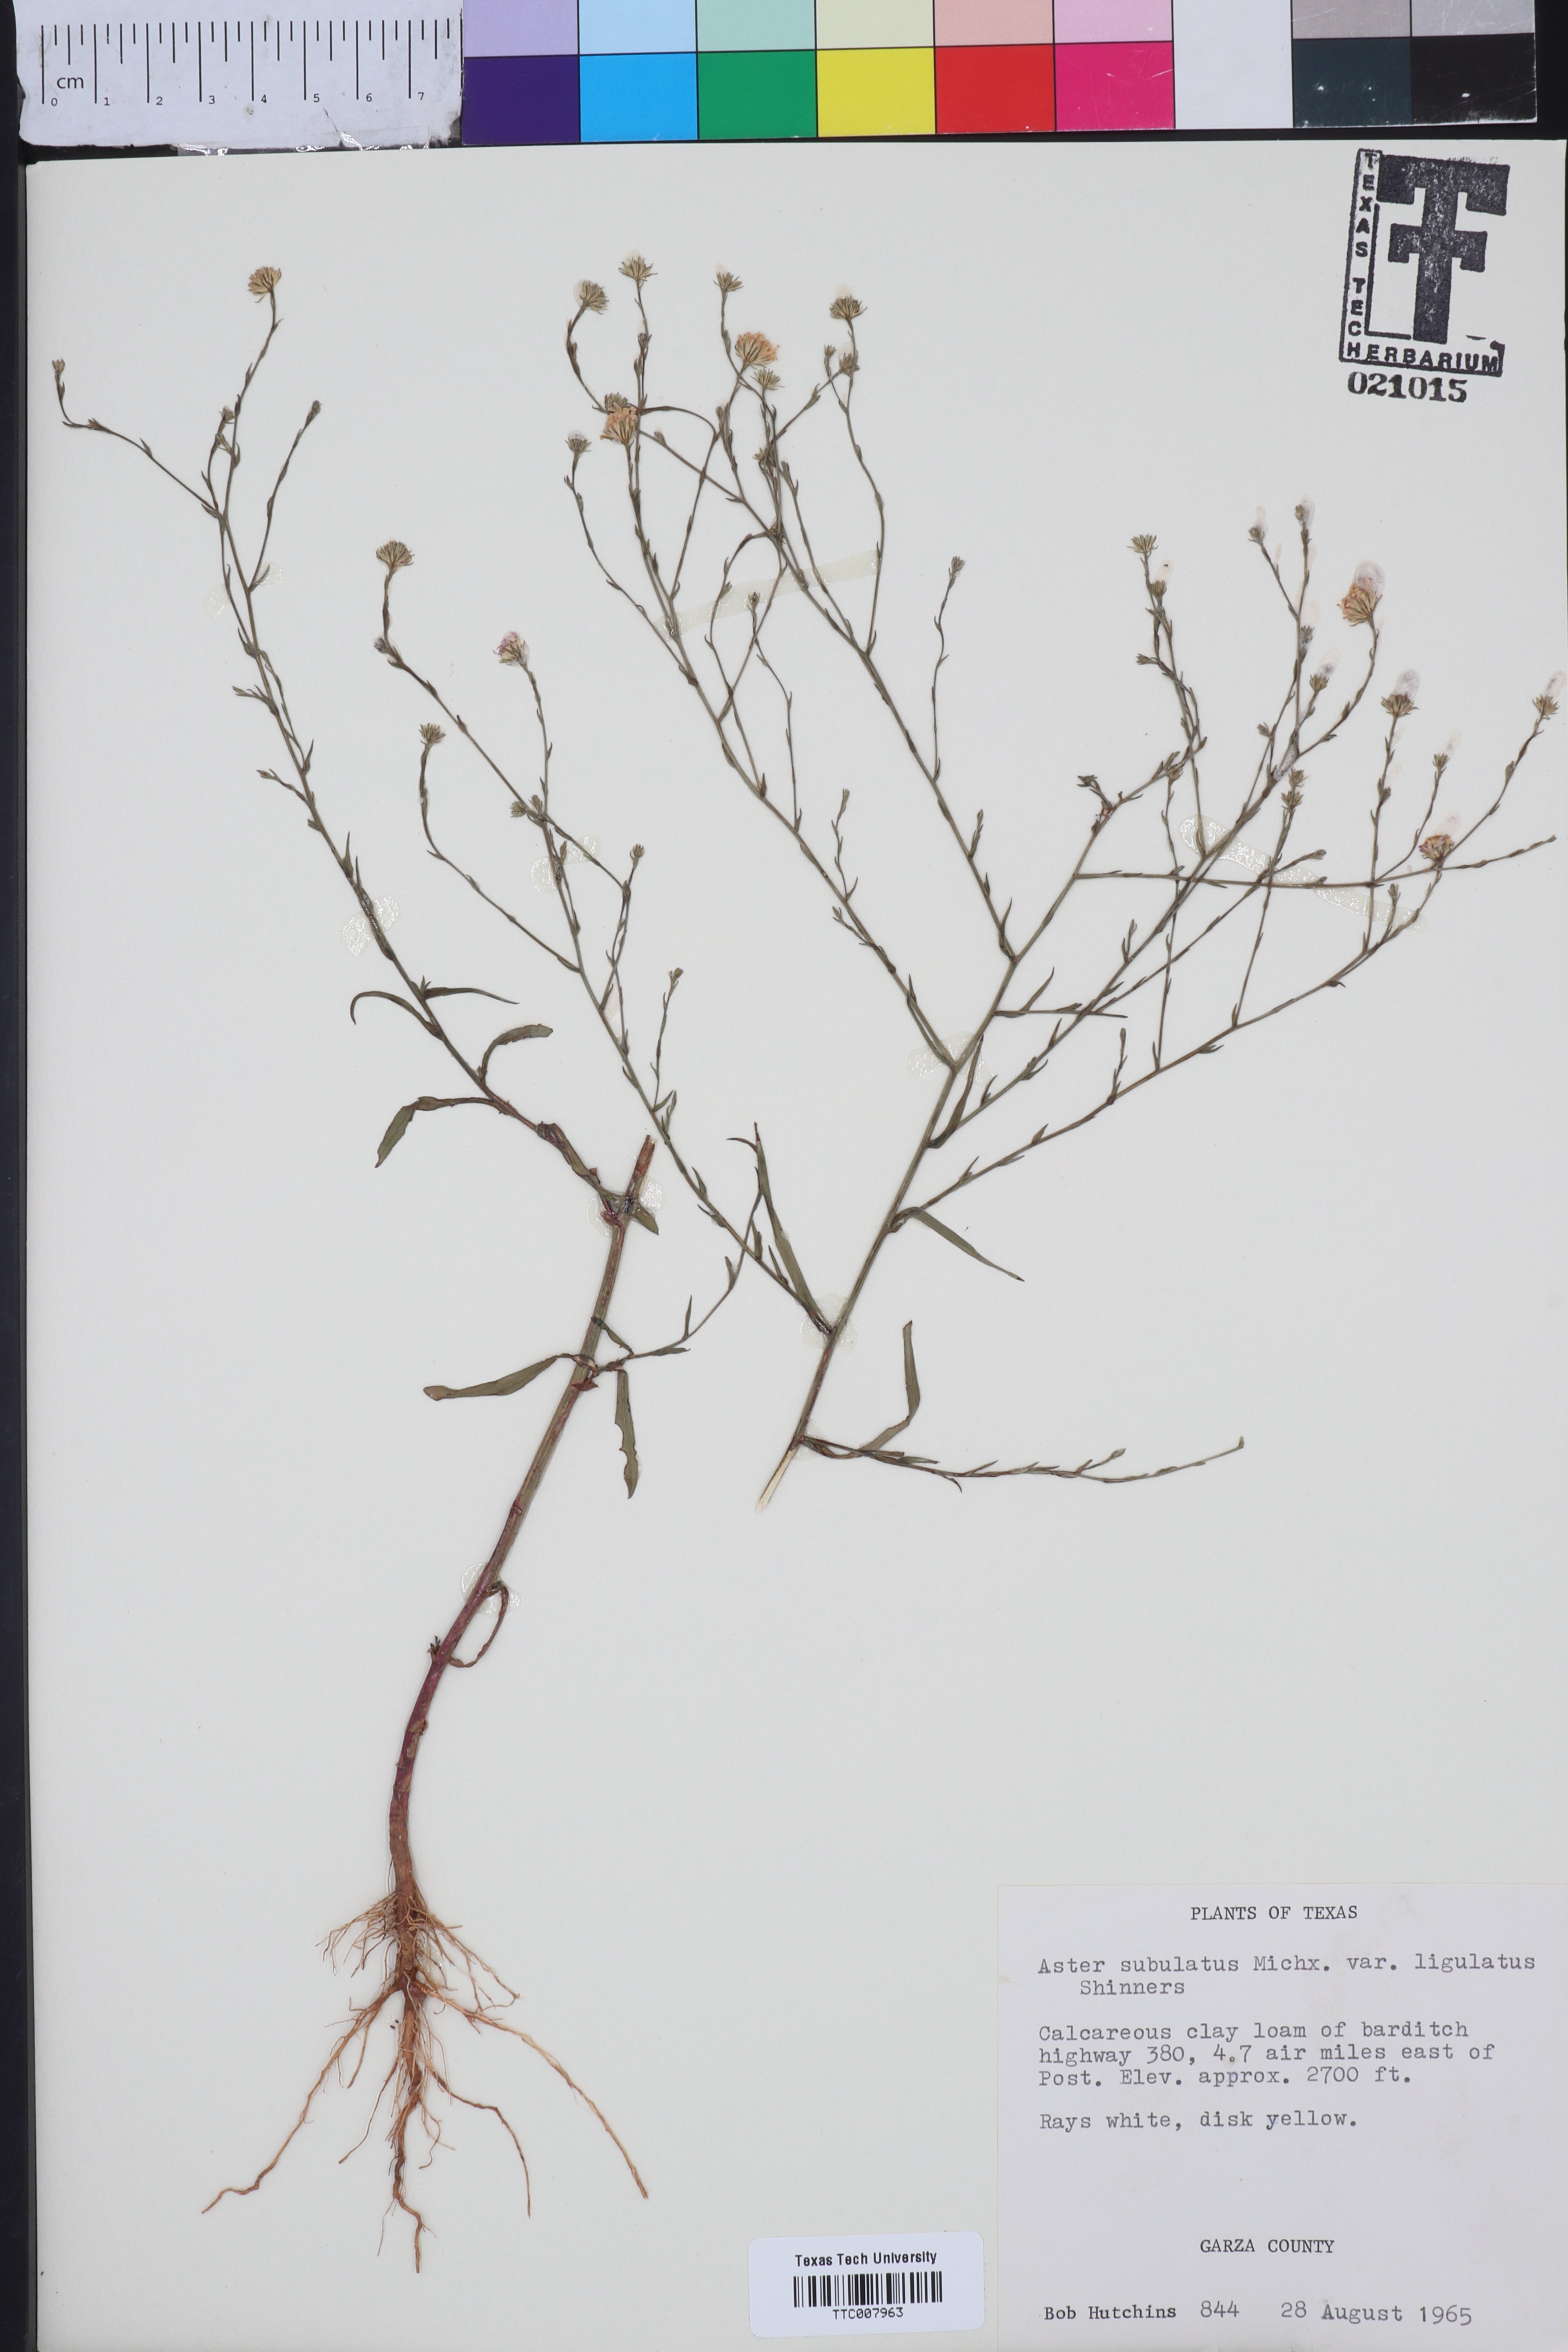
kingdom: Plantae
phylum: Tracheophyta
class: Magnoliopsida
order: Asterales
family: Asteraceae
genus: Symphyotrichum
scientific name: Symphyotrichum divaricatum
